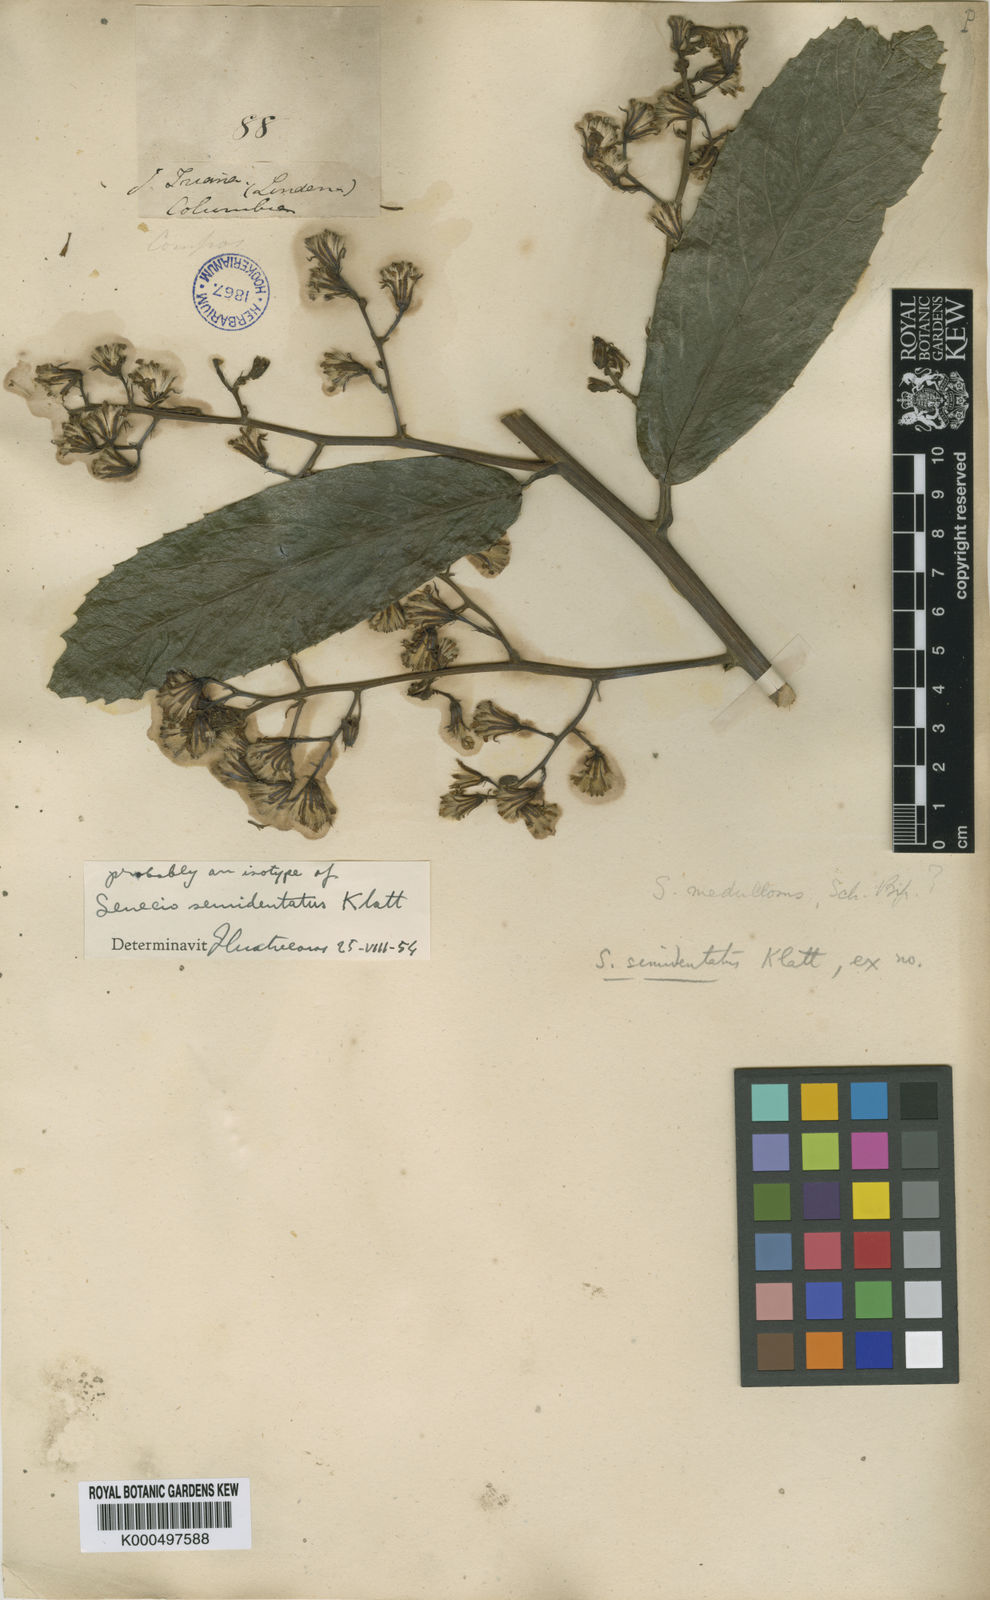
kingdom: Plantae
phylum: Tracheophyta
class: Magnoliopsida
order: Asterales
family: Asteraceae
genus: Dendrophorbium
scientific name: Dendrophorbium reflexum
